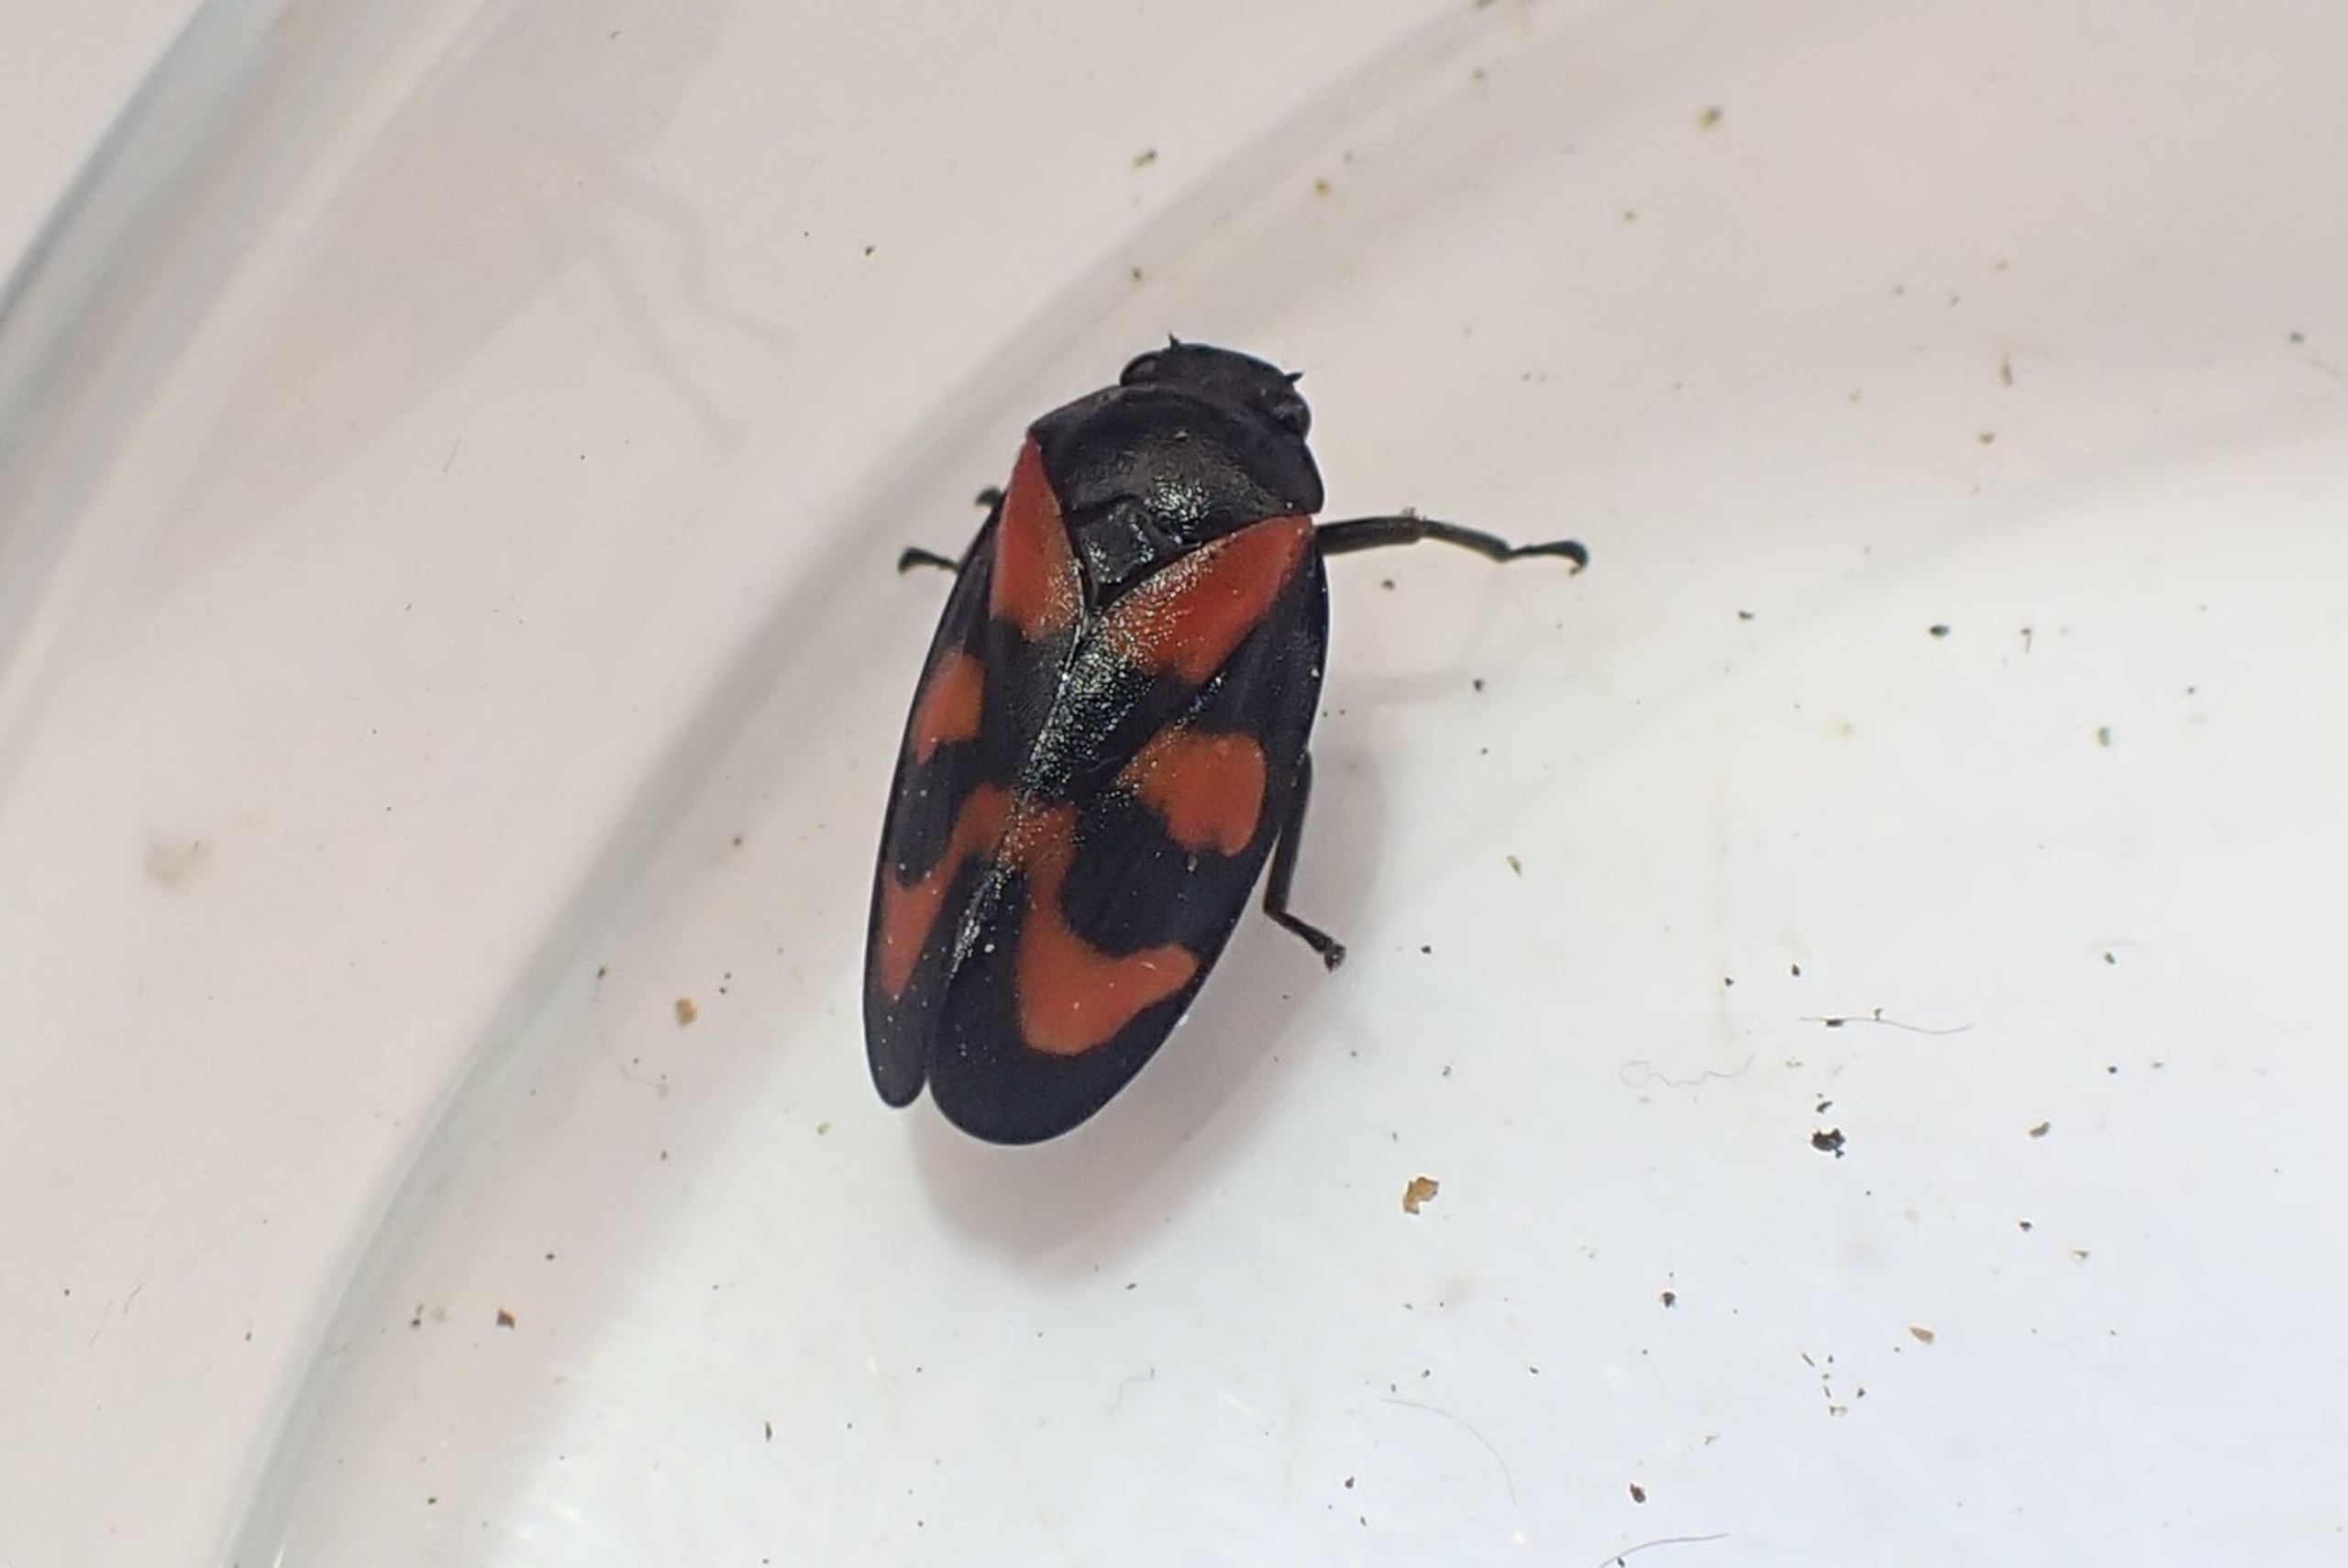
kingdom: Animalia
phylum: Arthropoda
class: Insecta
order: Hemiptera
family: Cercopidae
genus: Cercopis
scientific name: Cercopis vulnerata
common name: Blodcikade
